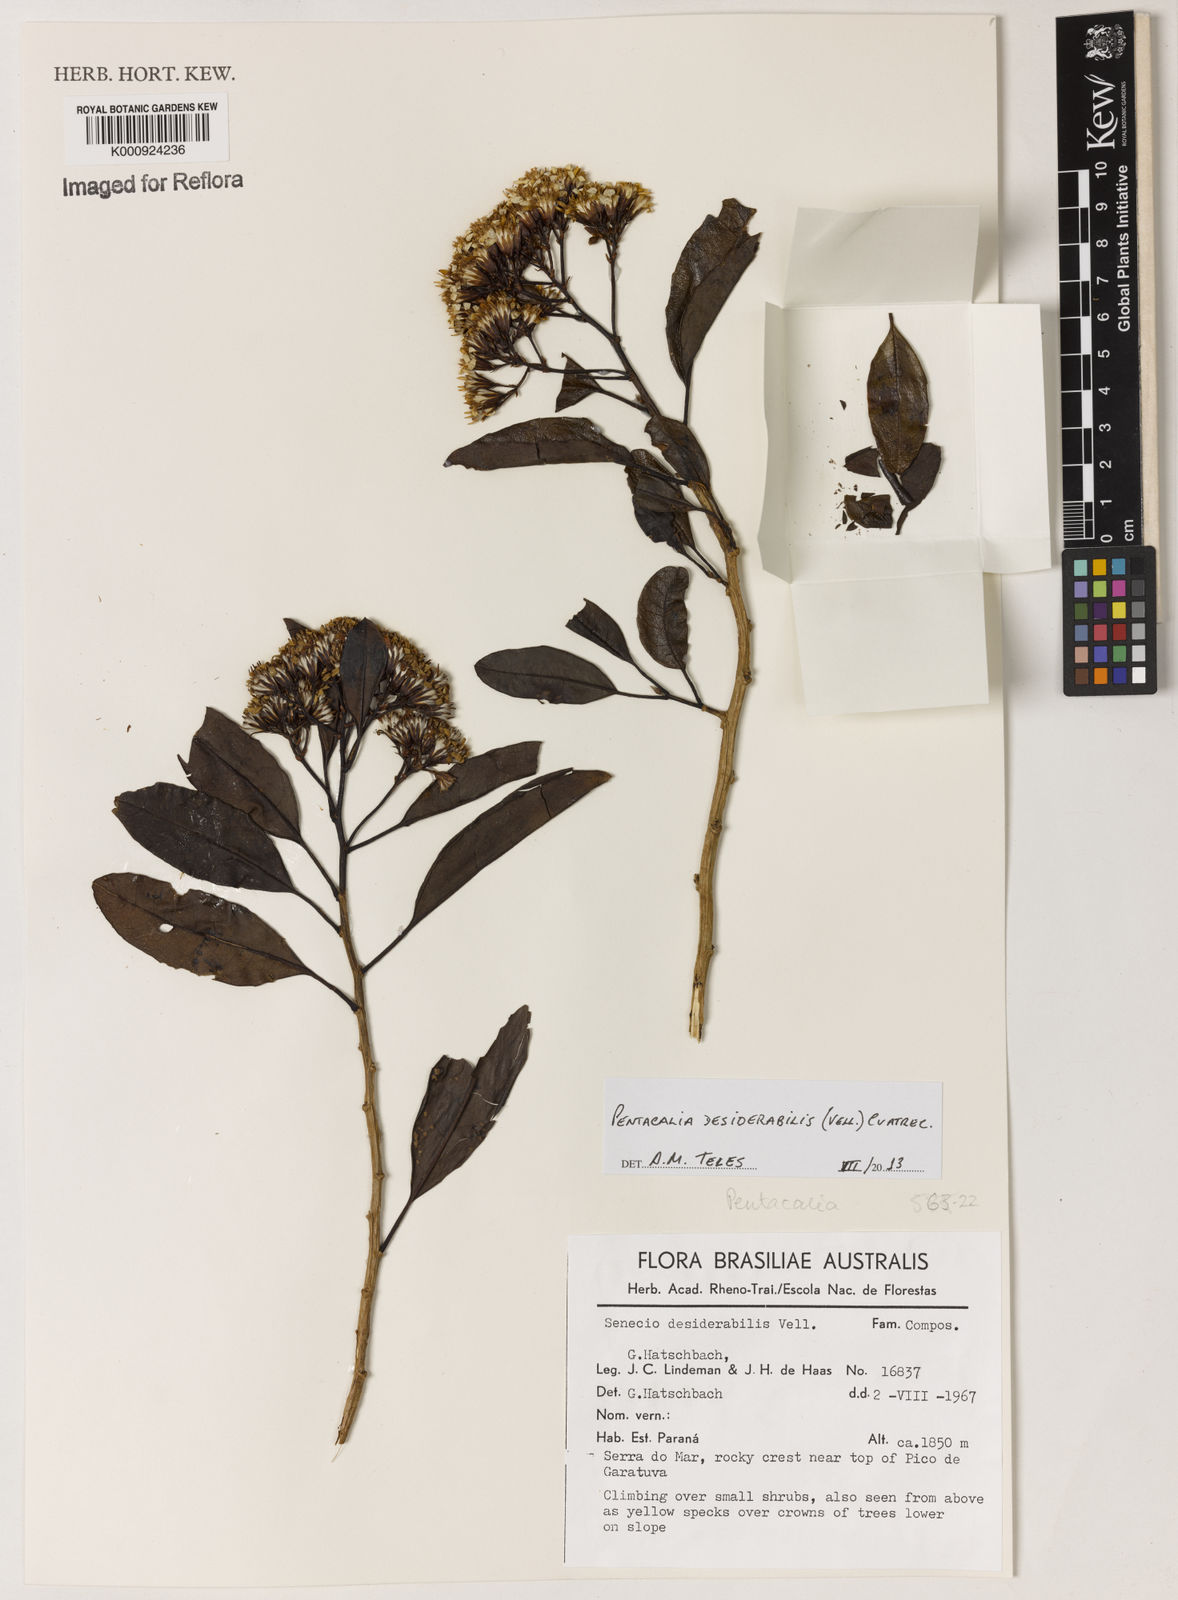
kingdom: Plantae
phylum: Tracheophyta
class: Magnoliopsida
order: Asterales
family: Asteraceae
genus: Pentacalia
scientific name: Pentacalia desiderabilis
